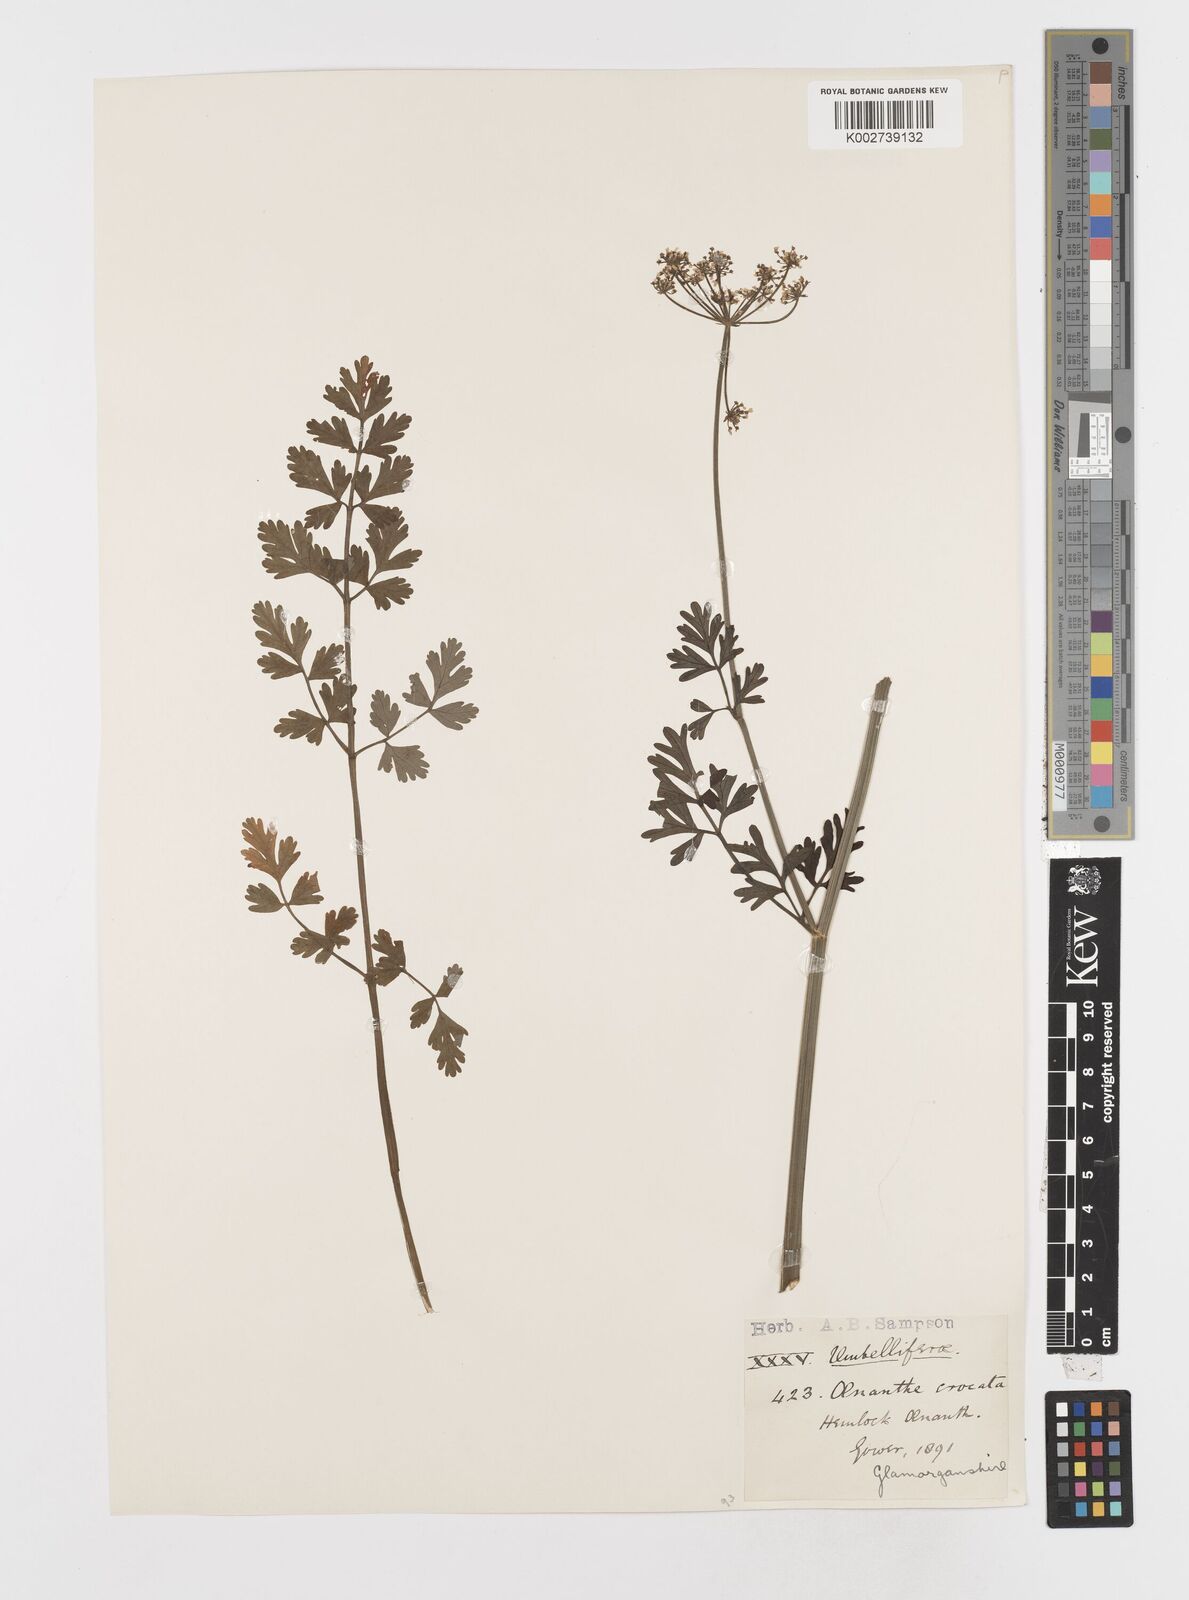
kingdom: Plantae
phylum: Tracheophyta
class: Magnoliopsida
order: Apiales
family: Apiaceae
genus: Oenanthe
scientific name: Oenanthe crocata
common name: Hemlock water-dropwort
